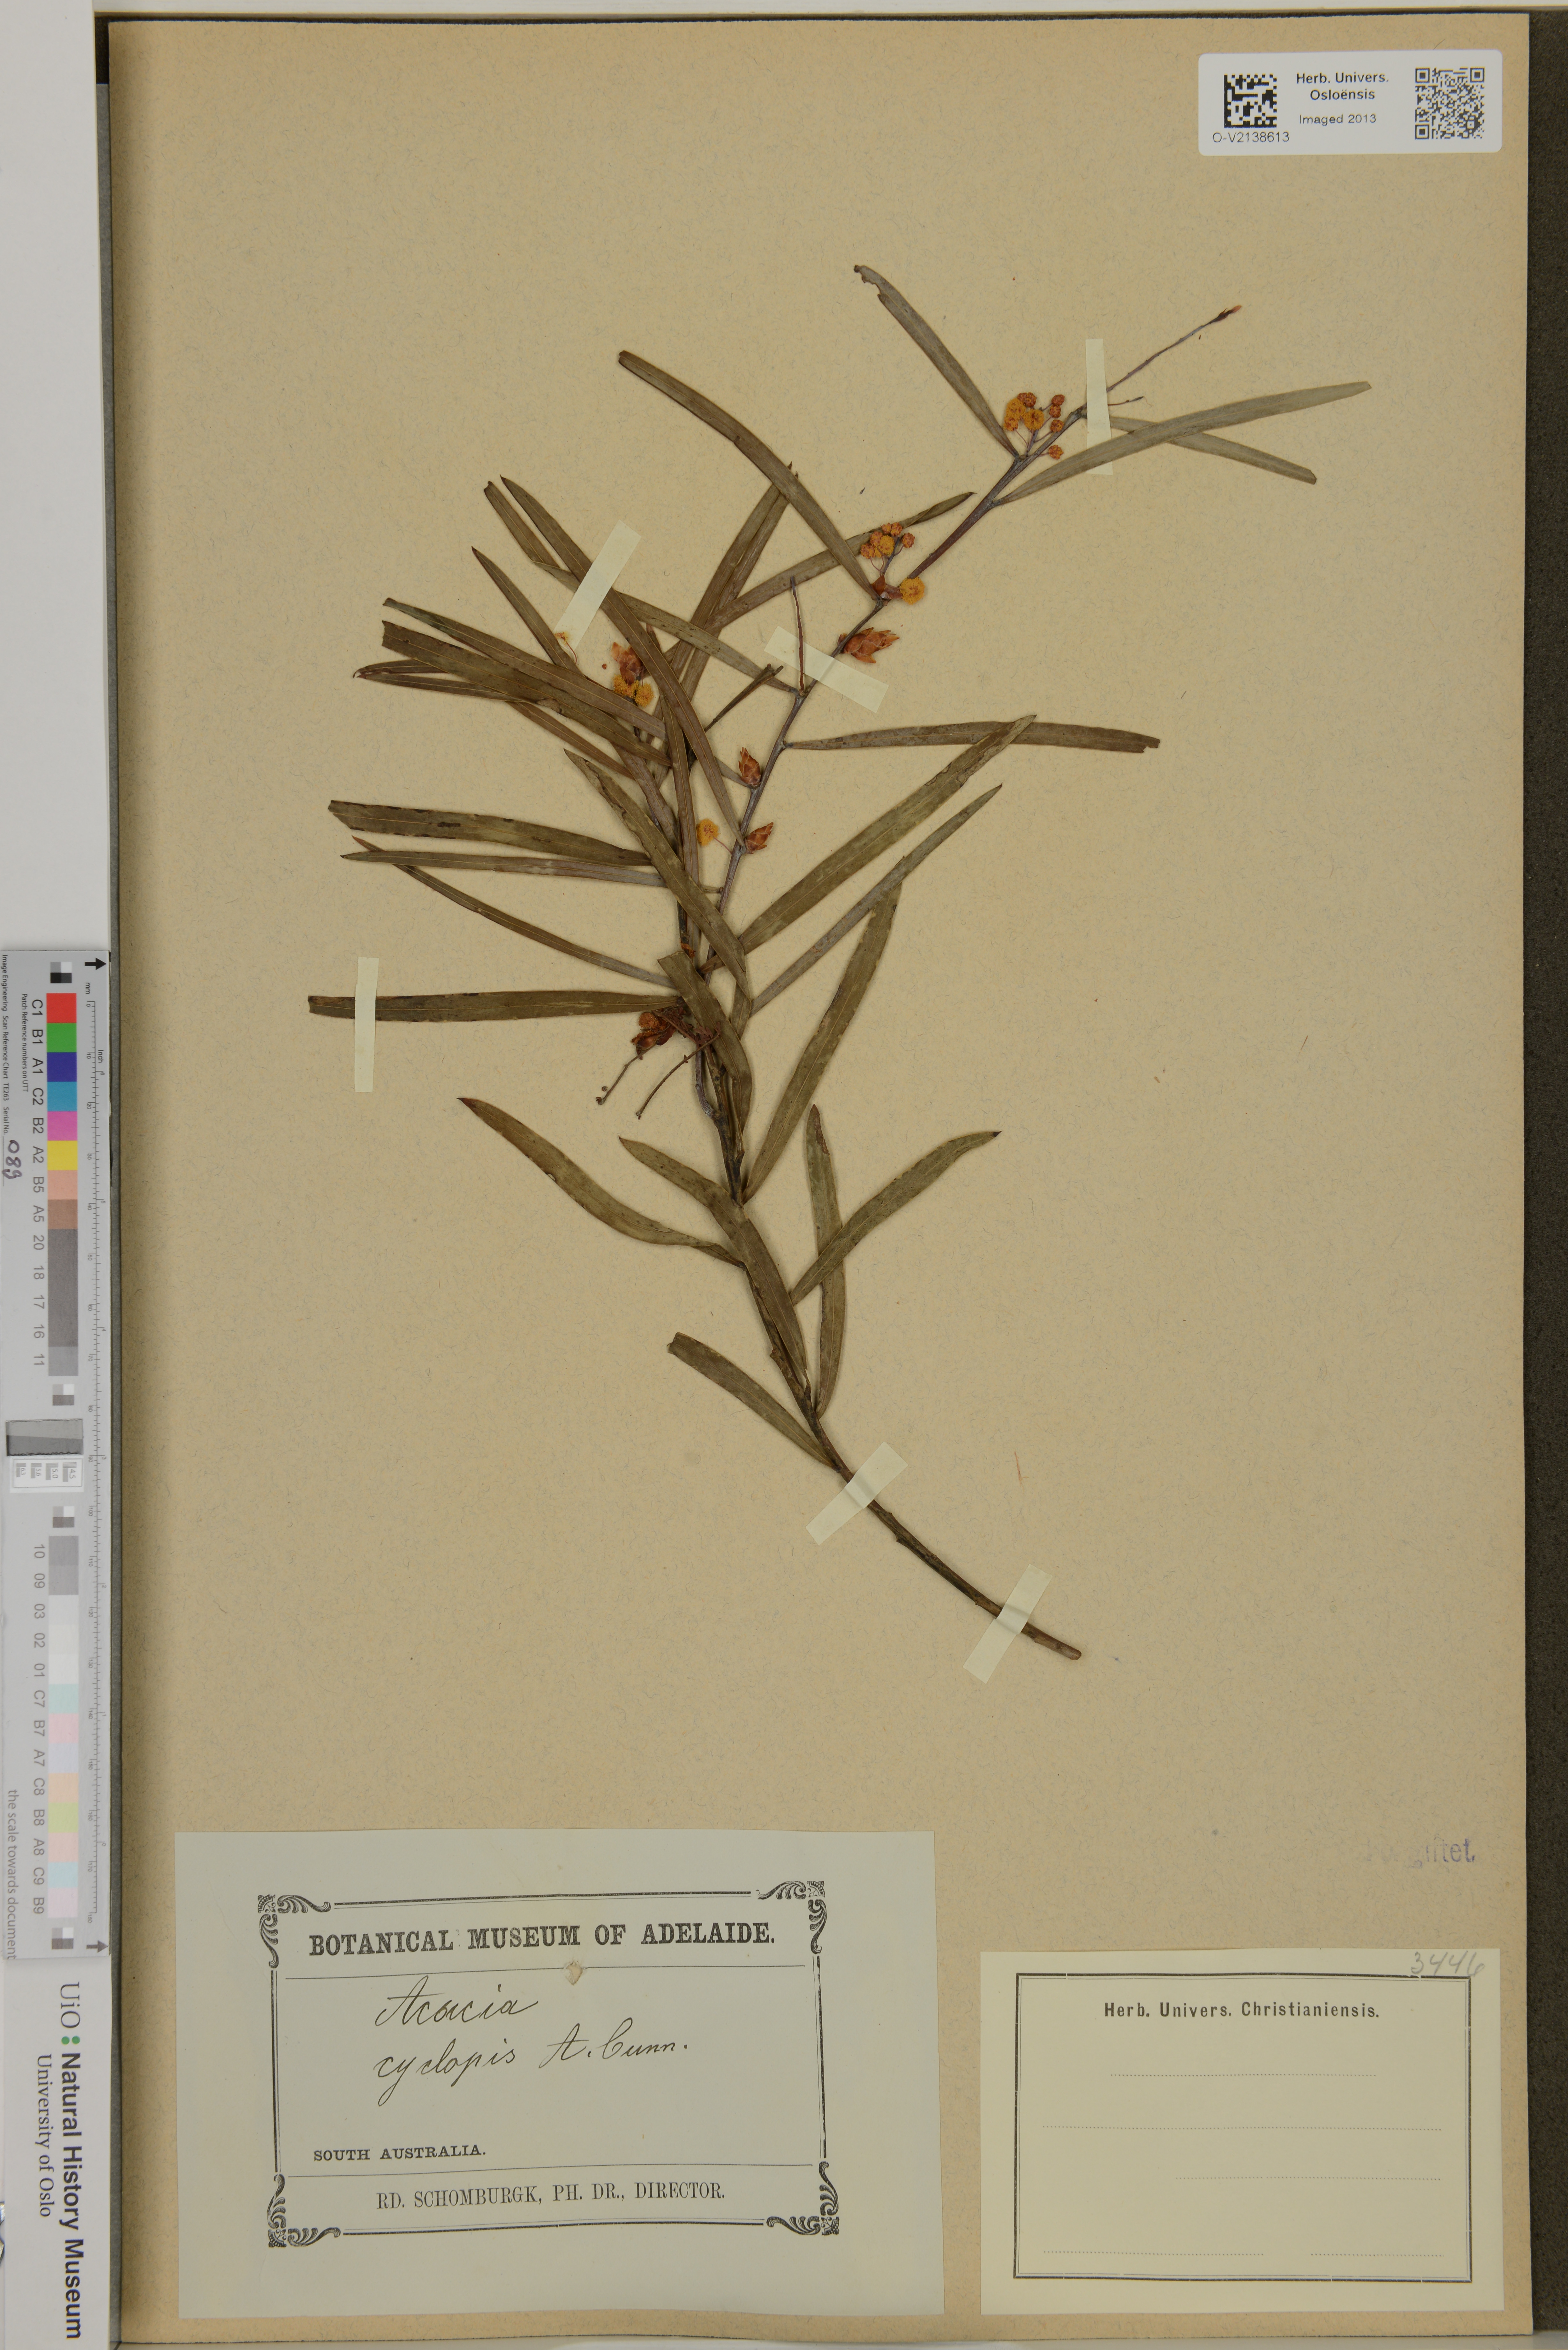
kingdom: Plantae
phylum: Tracheophyta
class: Magnoliopsida
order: Fabales
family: Fabaceae
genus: Acacia
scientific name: Acacia cyclops
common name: Coastal wattle
